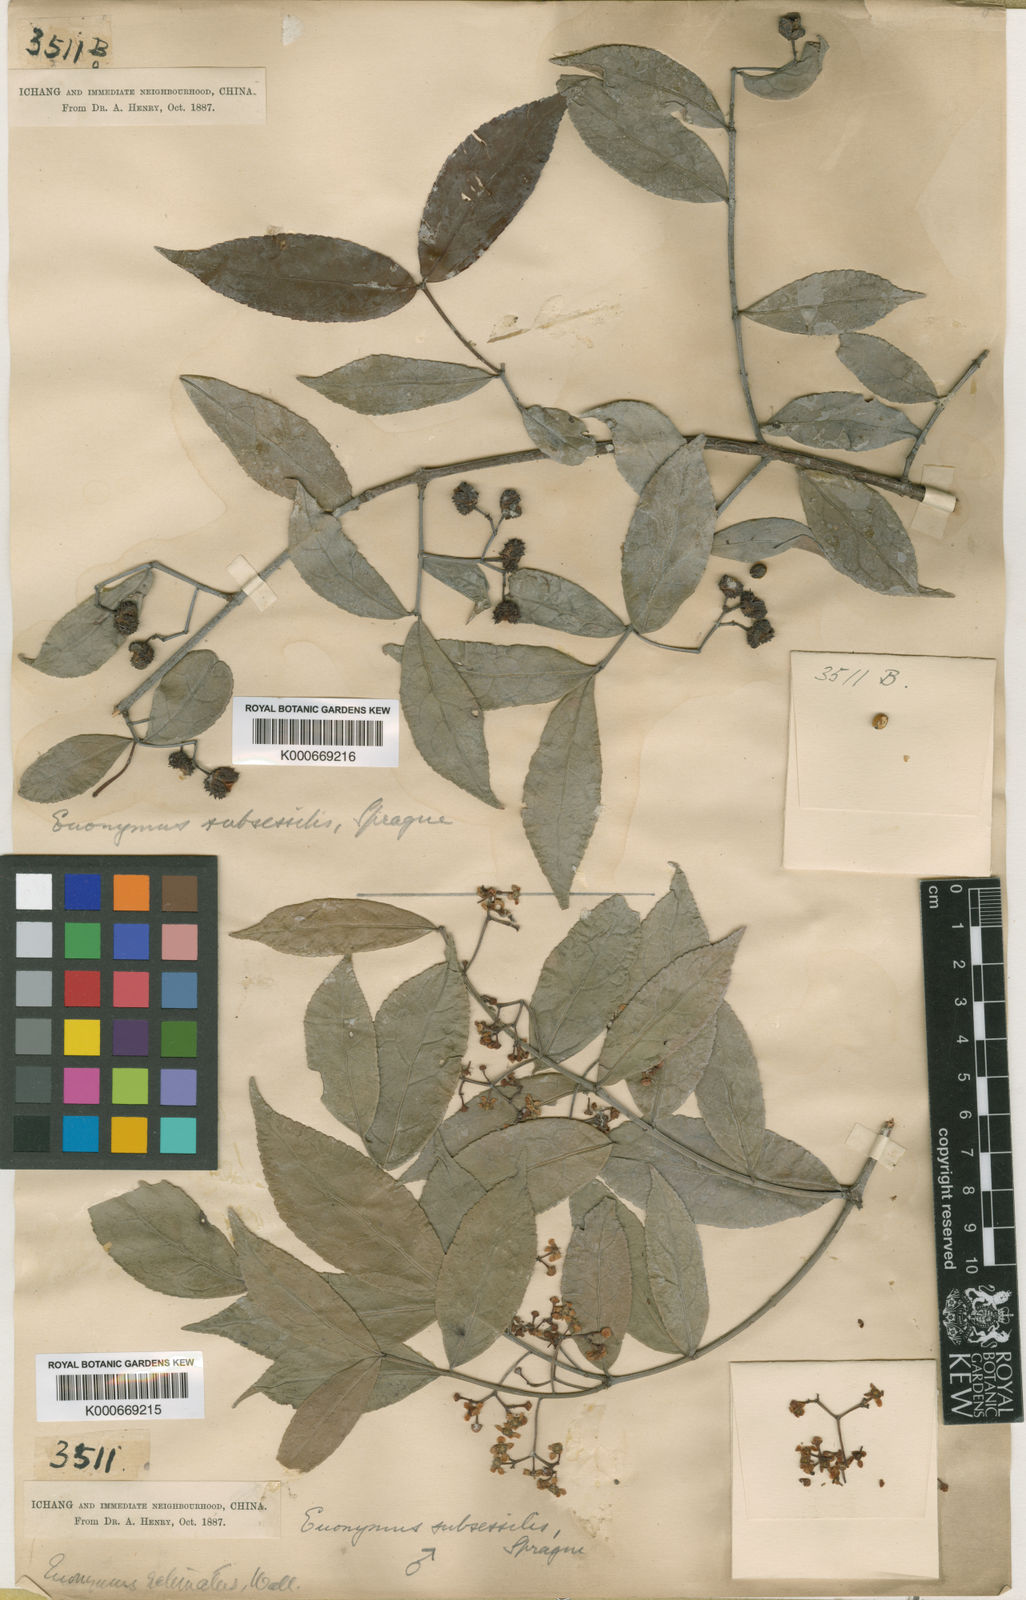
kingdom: Plantae
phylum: Tracheophyta
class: Magnoliopsida
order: Celastrales
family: Celastraceae
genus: Euonymus
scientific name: Euonymus echinatus
